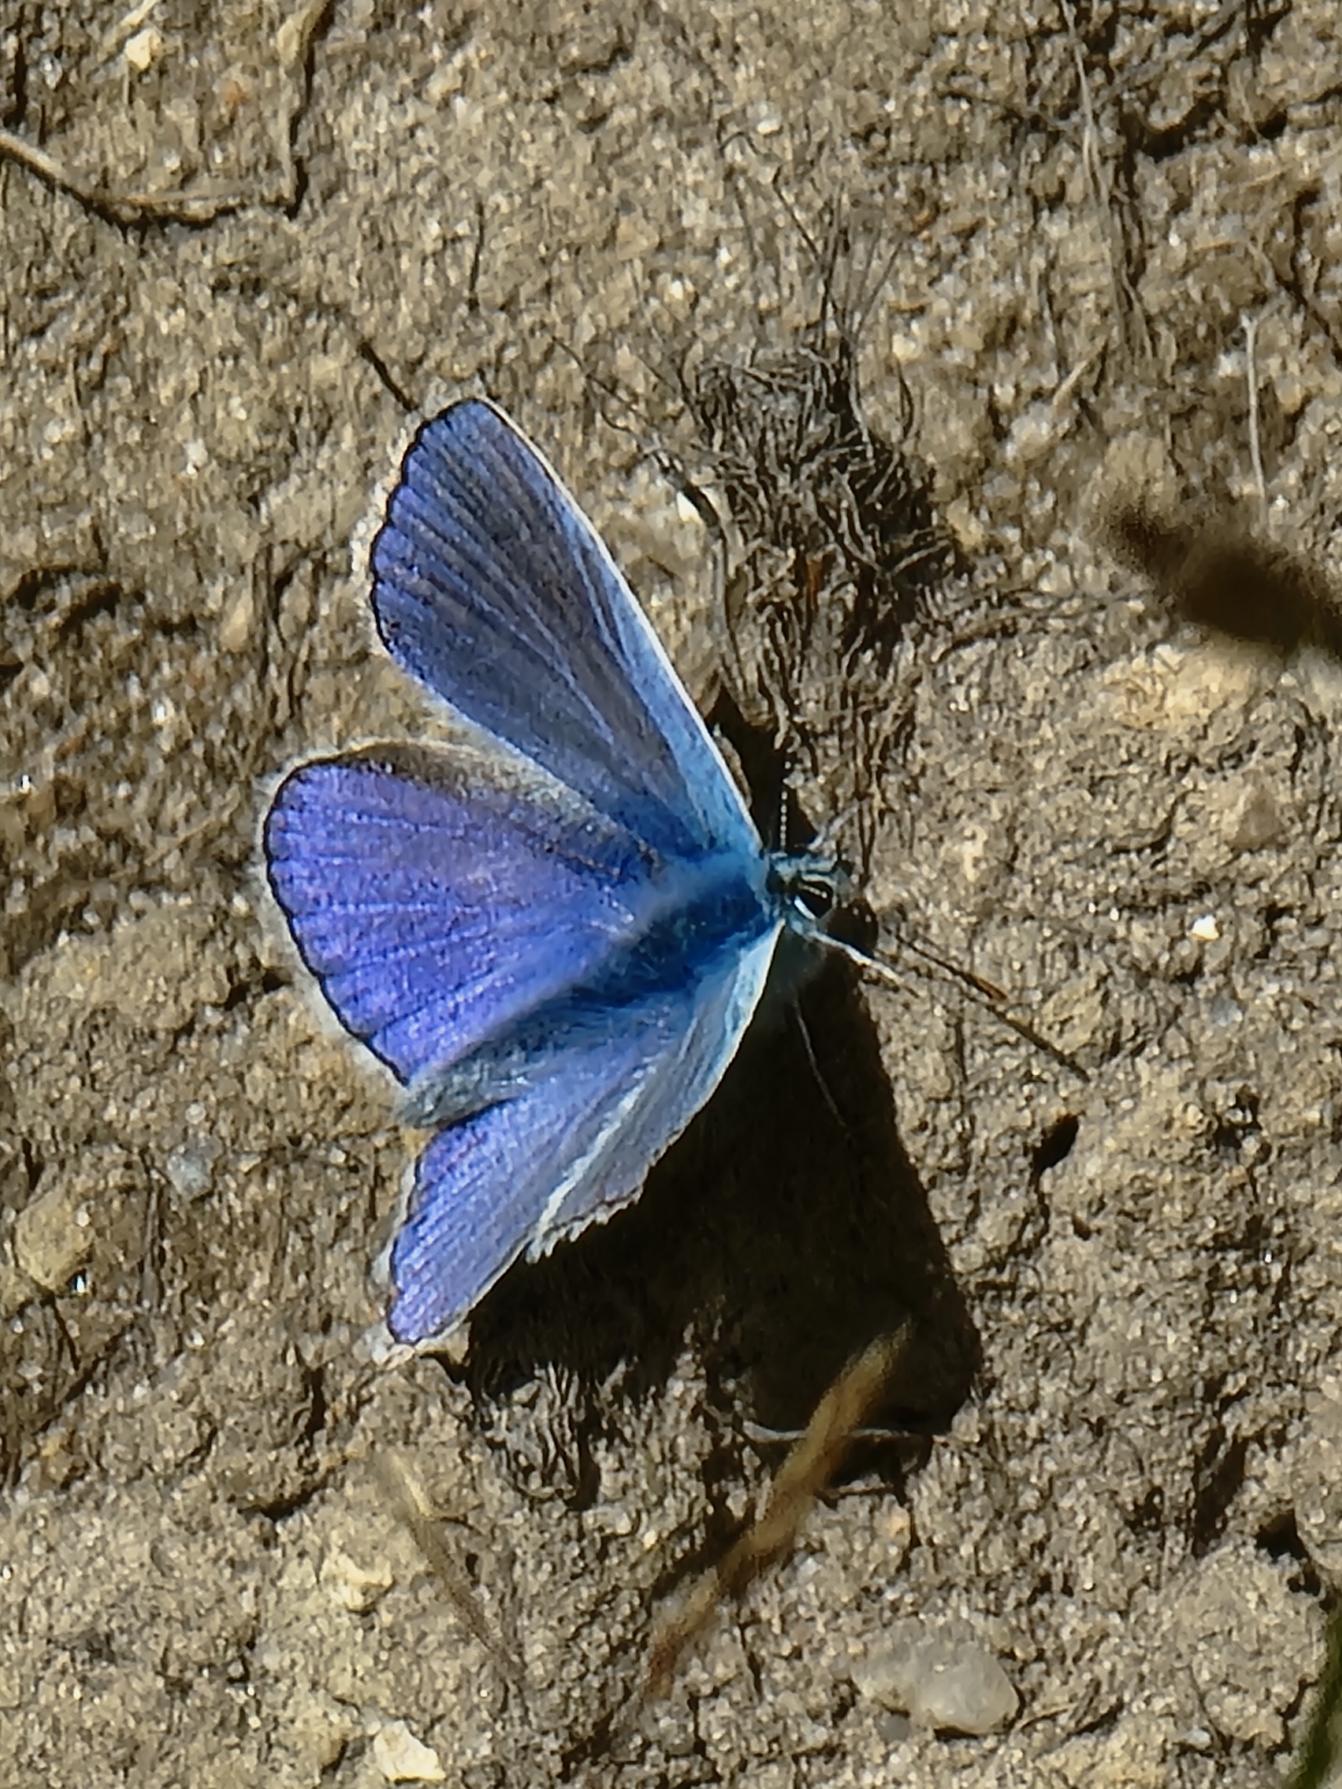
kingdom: Animalia
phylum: Arthropoda
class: Insecta
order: Lepidoptera
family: Lycaenidae
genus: Polyommatus
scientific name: Polyommatus icarus
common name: Almindelig blåfugl
